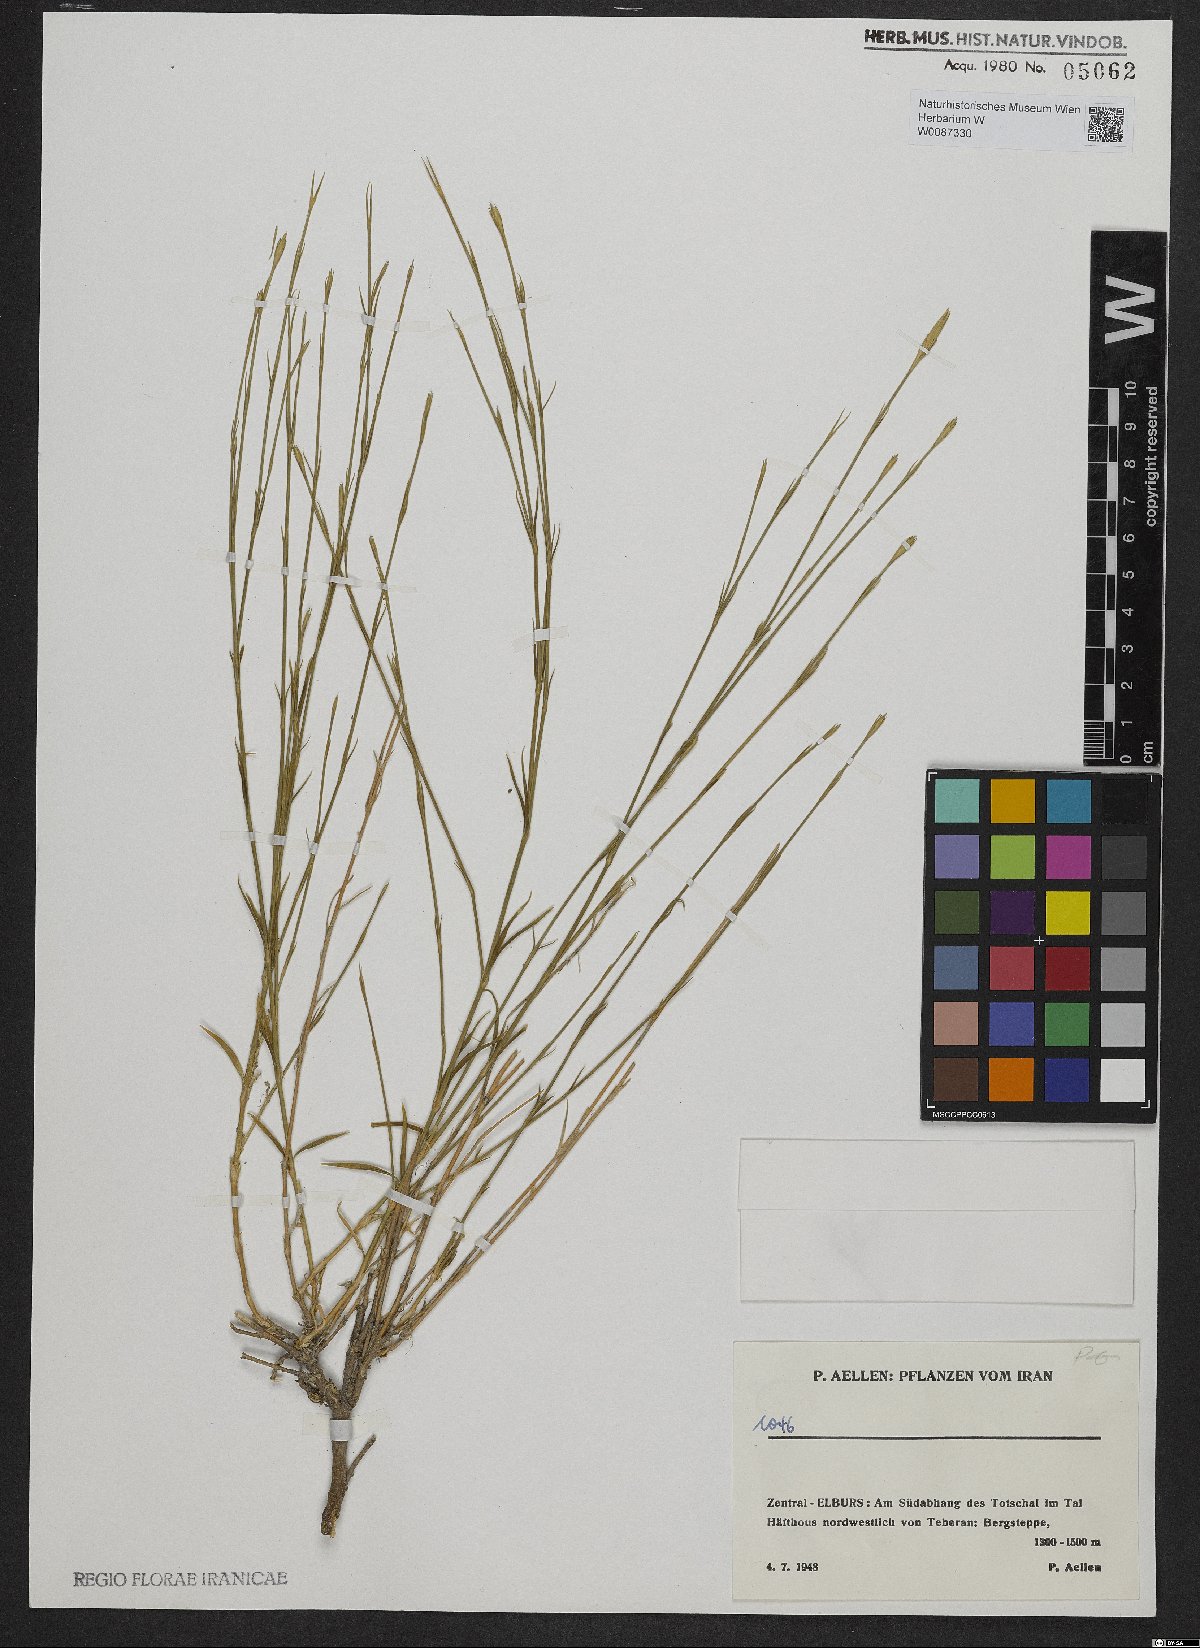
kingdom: Plantae
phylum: Tracheophyta
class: Magnoliopsida
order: Caryophyllales
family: Caryophyllaceae
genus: Dianthus
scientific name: Dianthus
